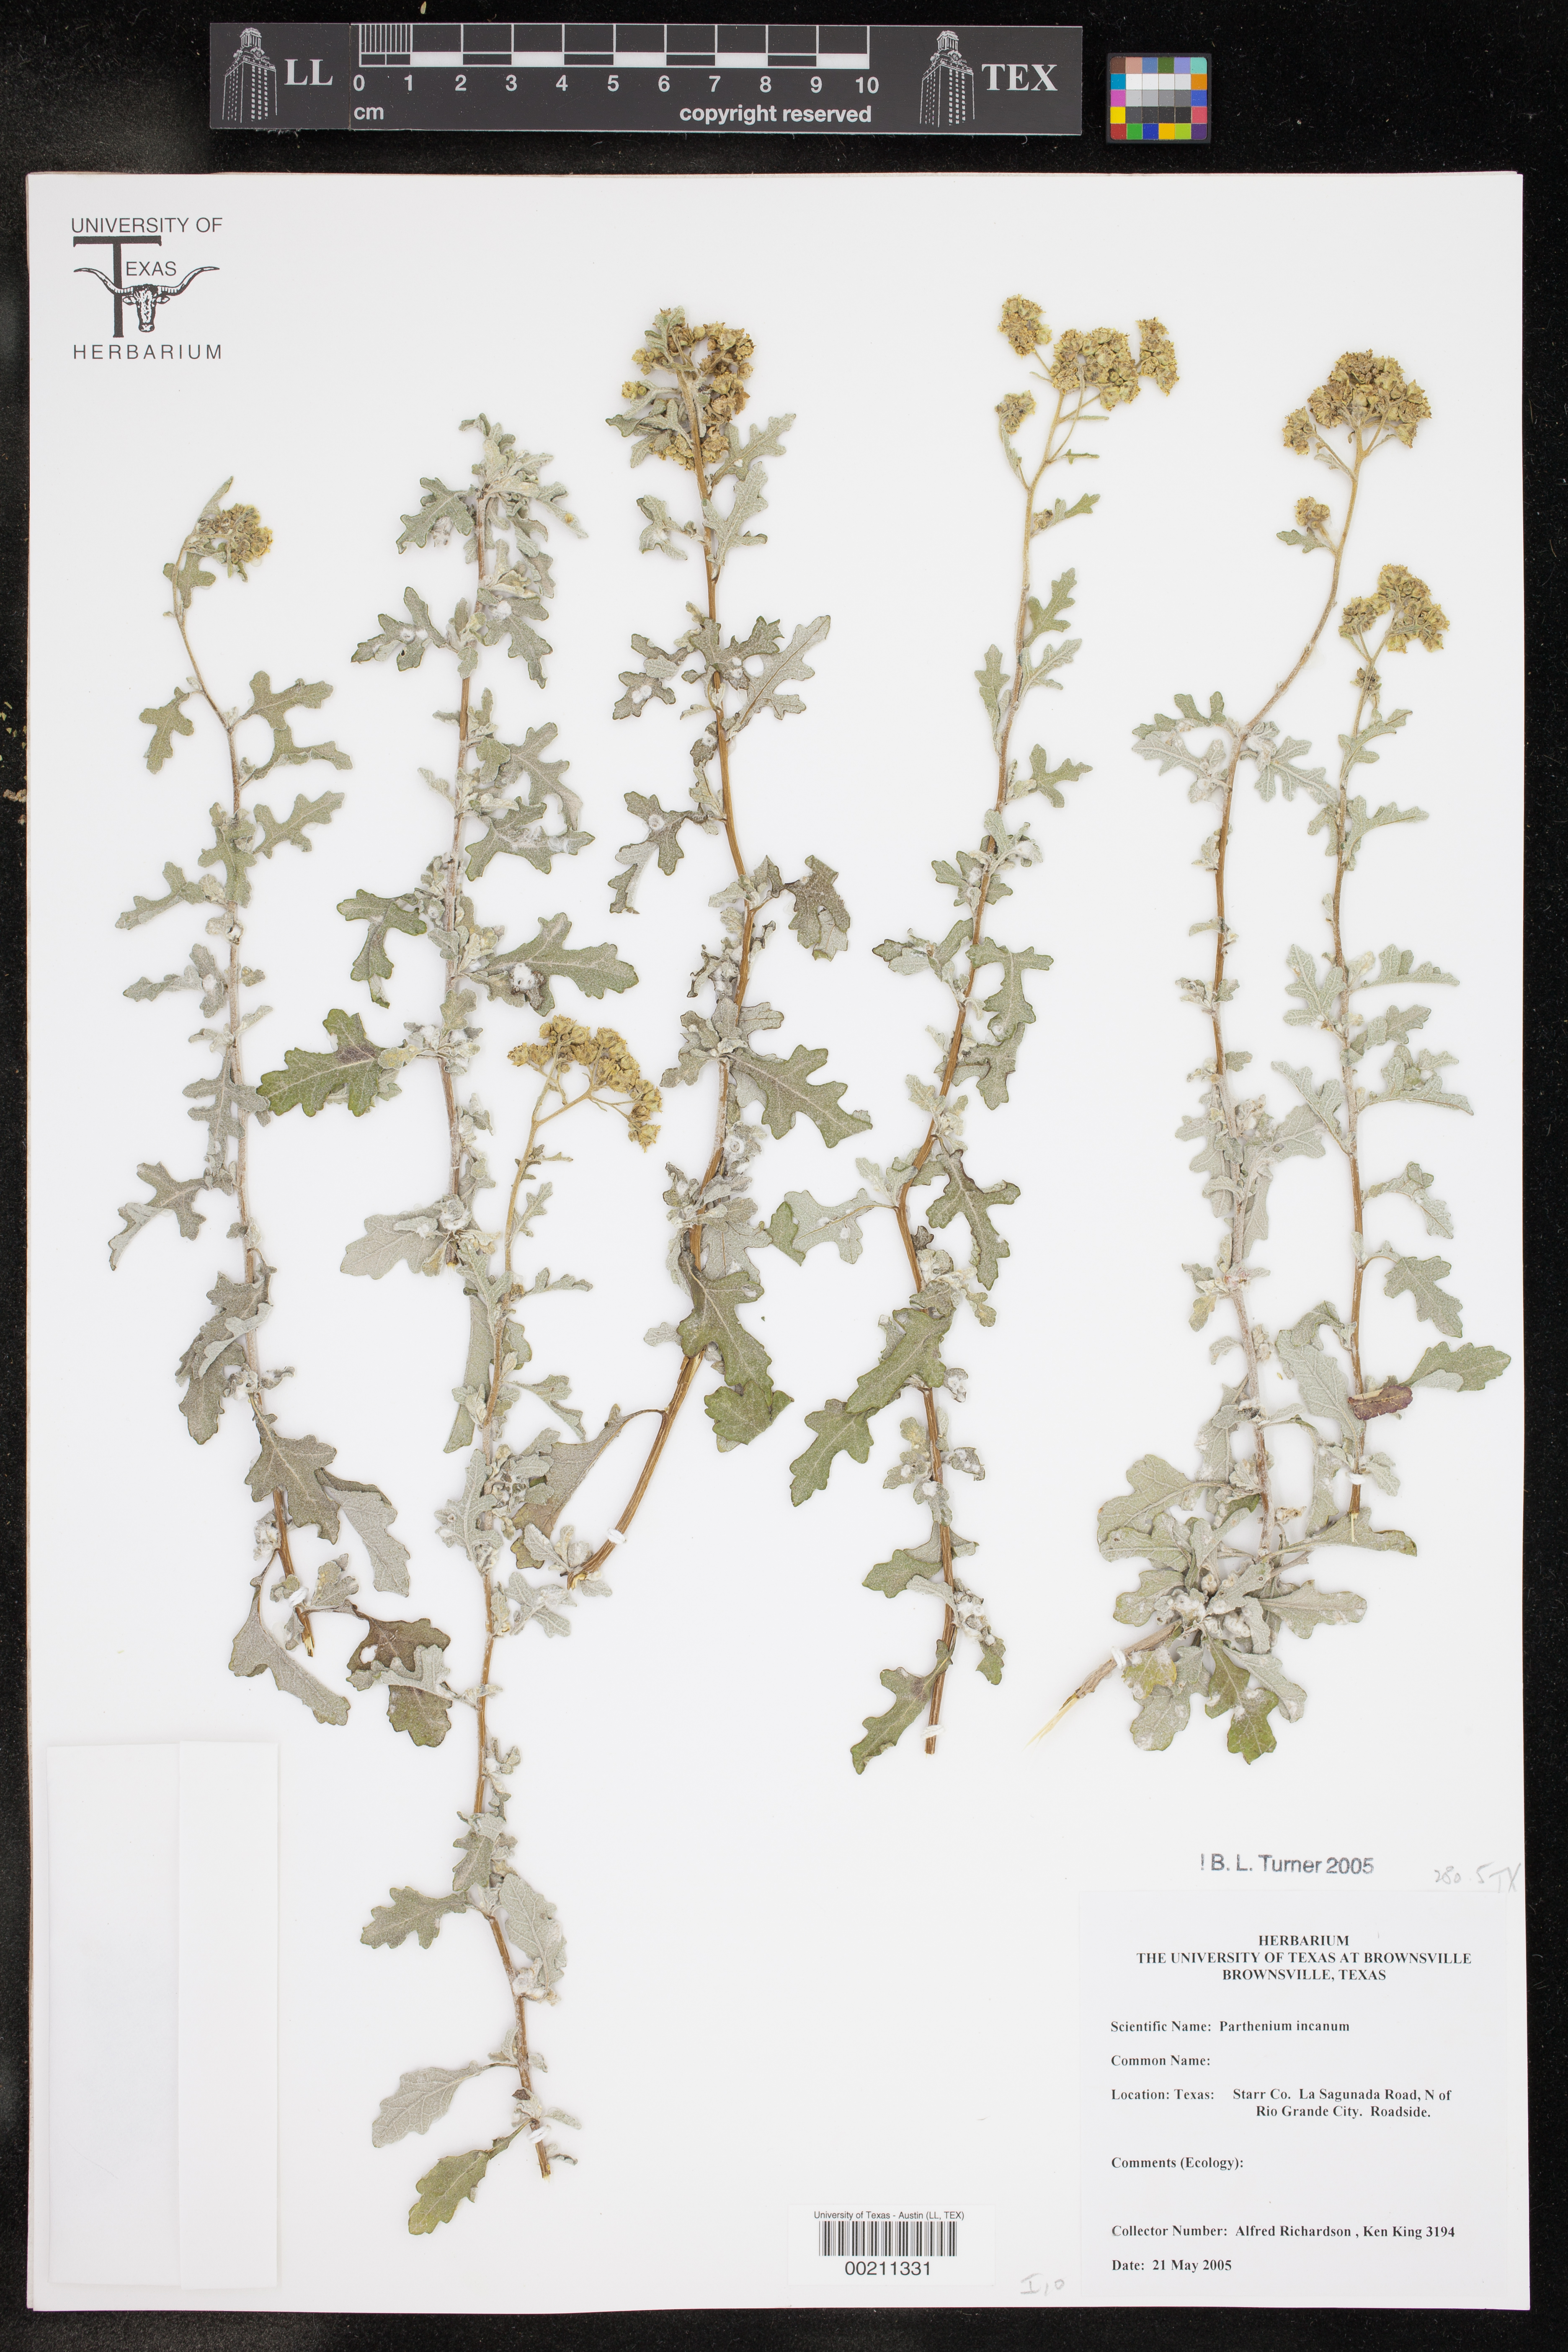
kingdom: Plantae
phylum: Tracheophyta
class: Magnoliopsida
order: Asterales
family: Asteraceae
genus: Parthenium
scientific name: Parthenium incanum
